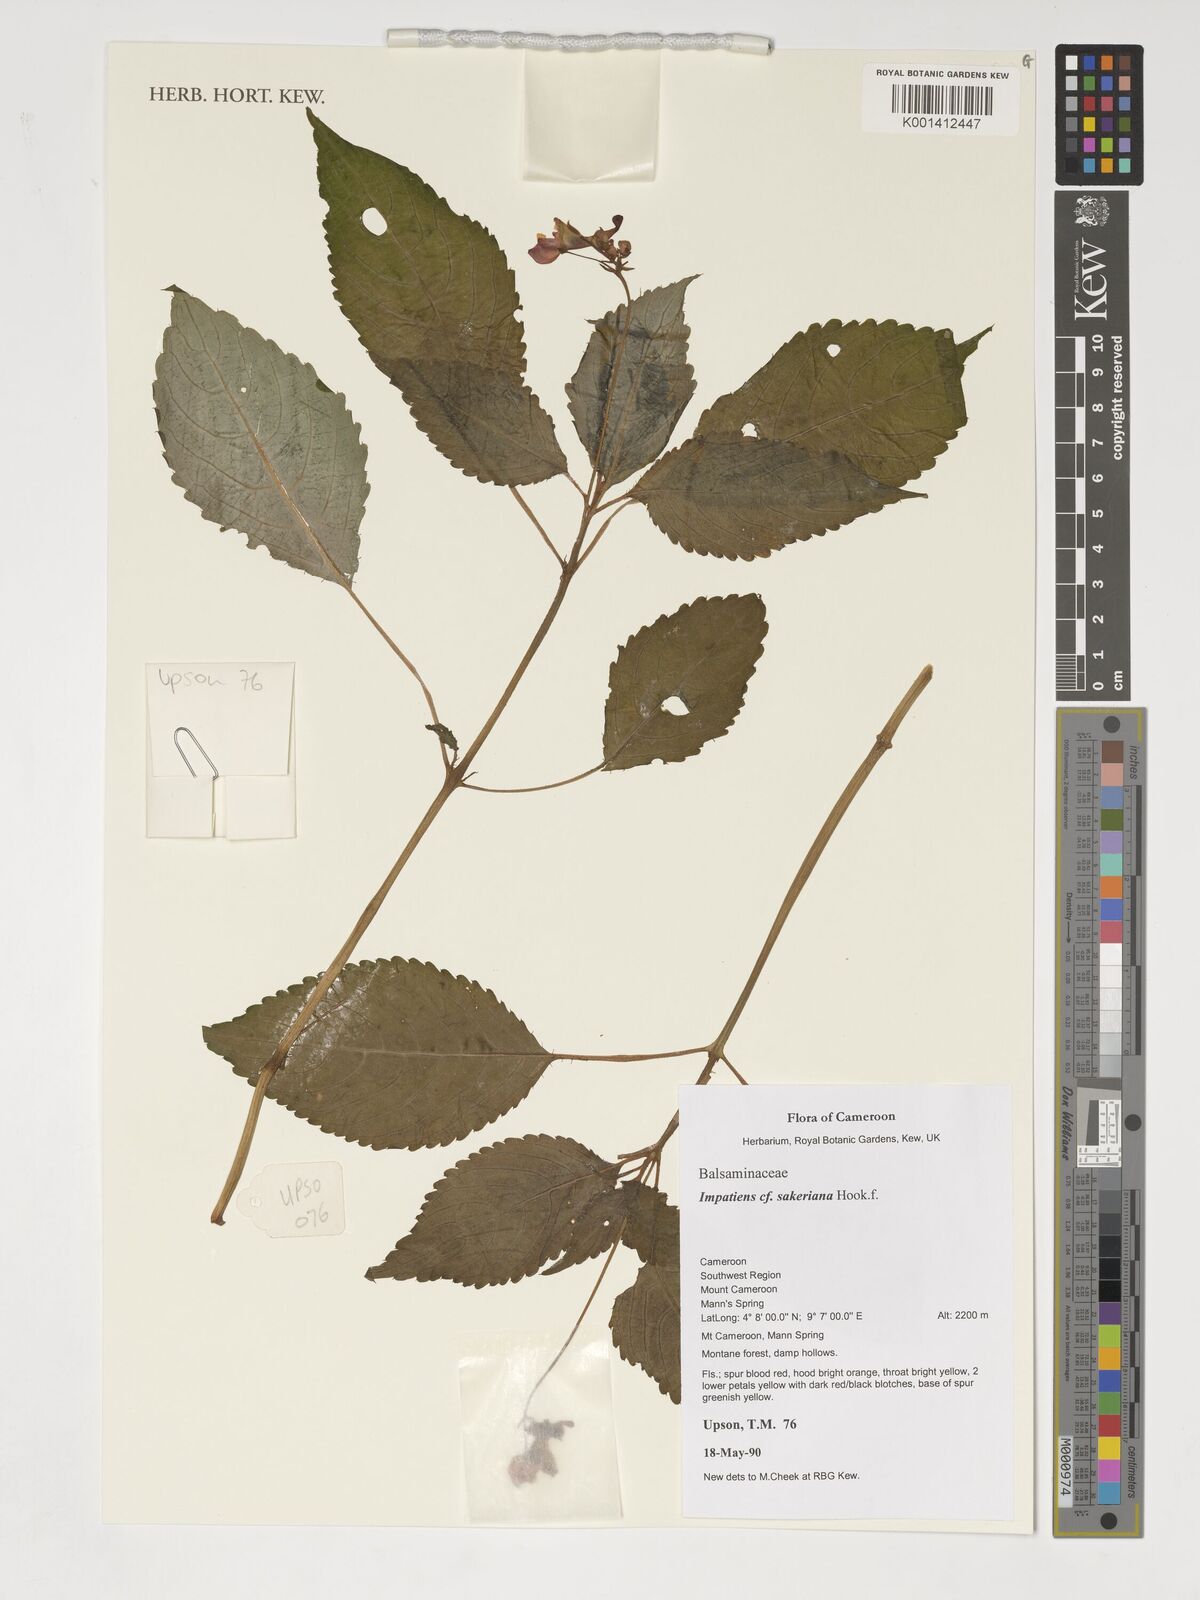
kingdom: Plantae
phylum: Tracheophyta
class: Magnoliopsida
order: Ericales
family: Balsaminaceae
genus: Impatiens
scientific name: Impatiens sakeriana
